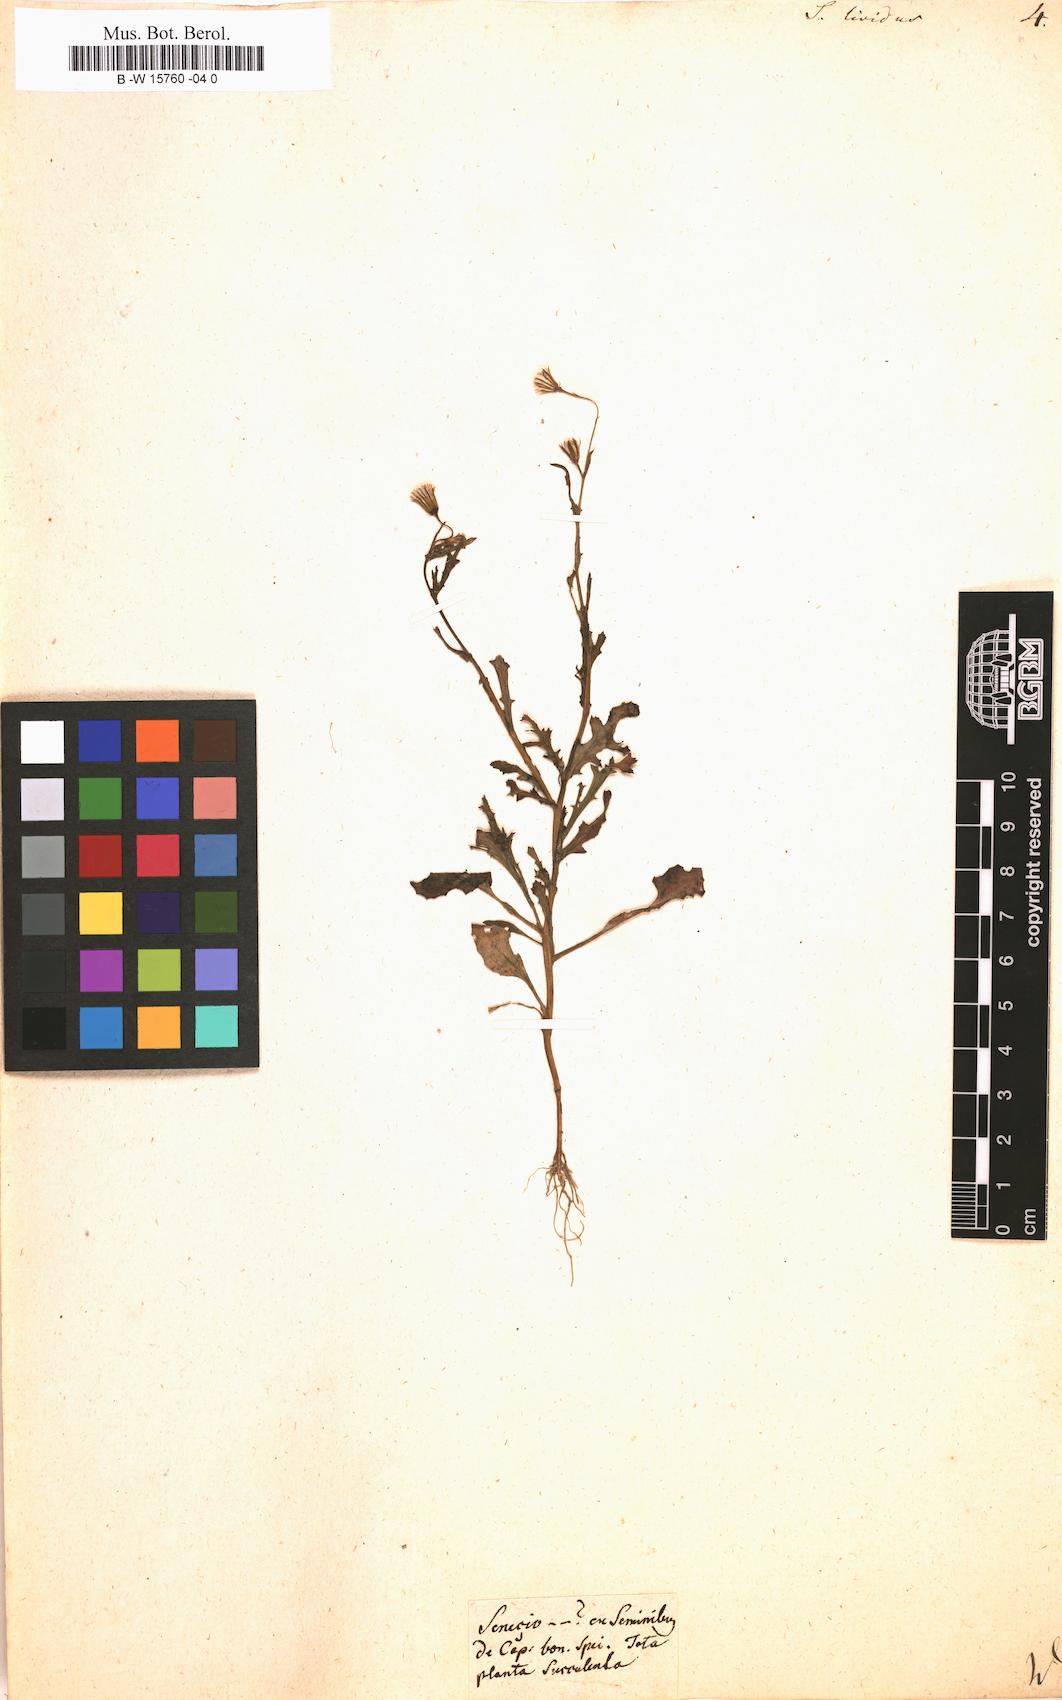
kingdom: Plantae
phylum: Tracheophyta
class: Magnoliopsida
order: Asterales
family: Asteraceae
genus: Senecio
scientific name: Senecio lividus
